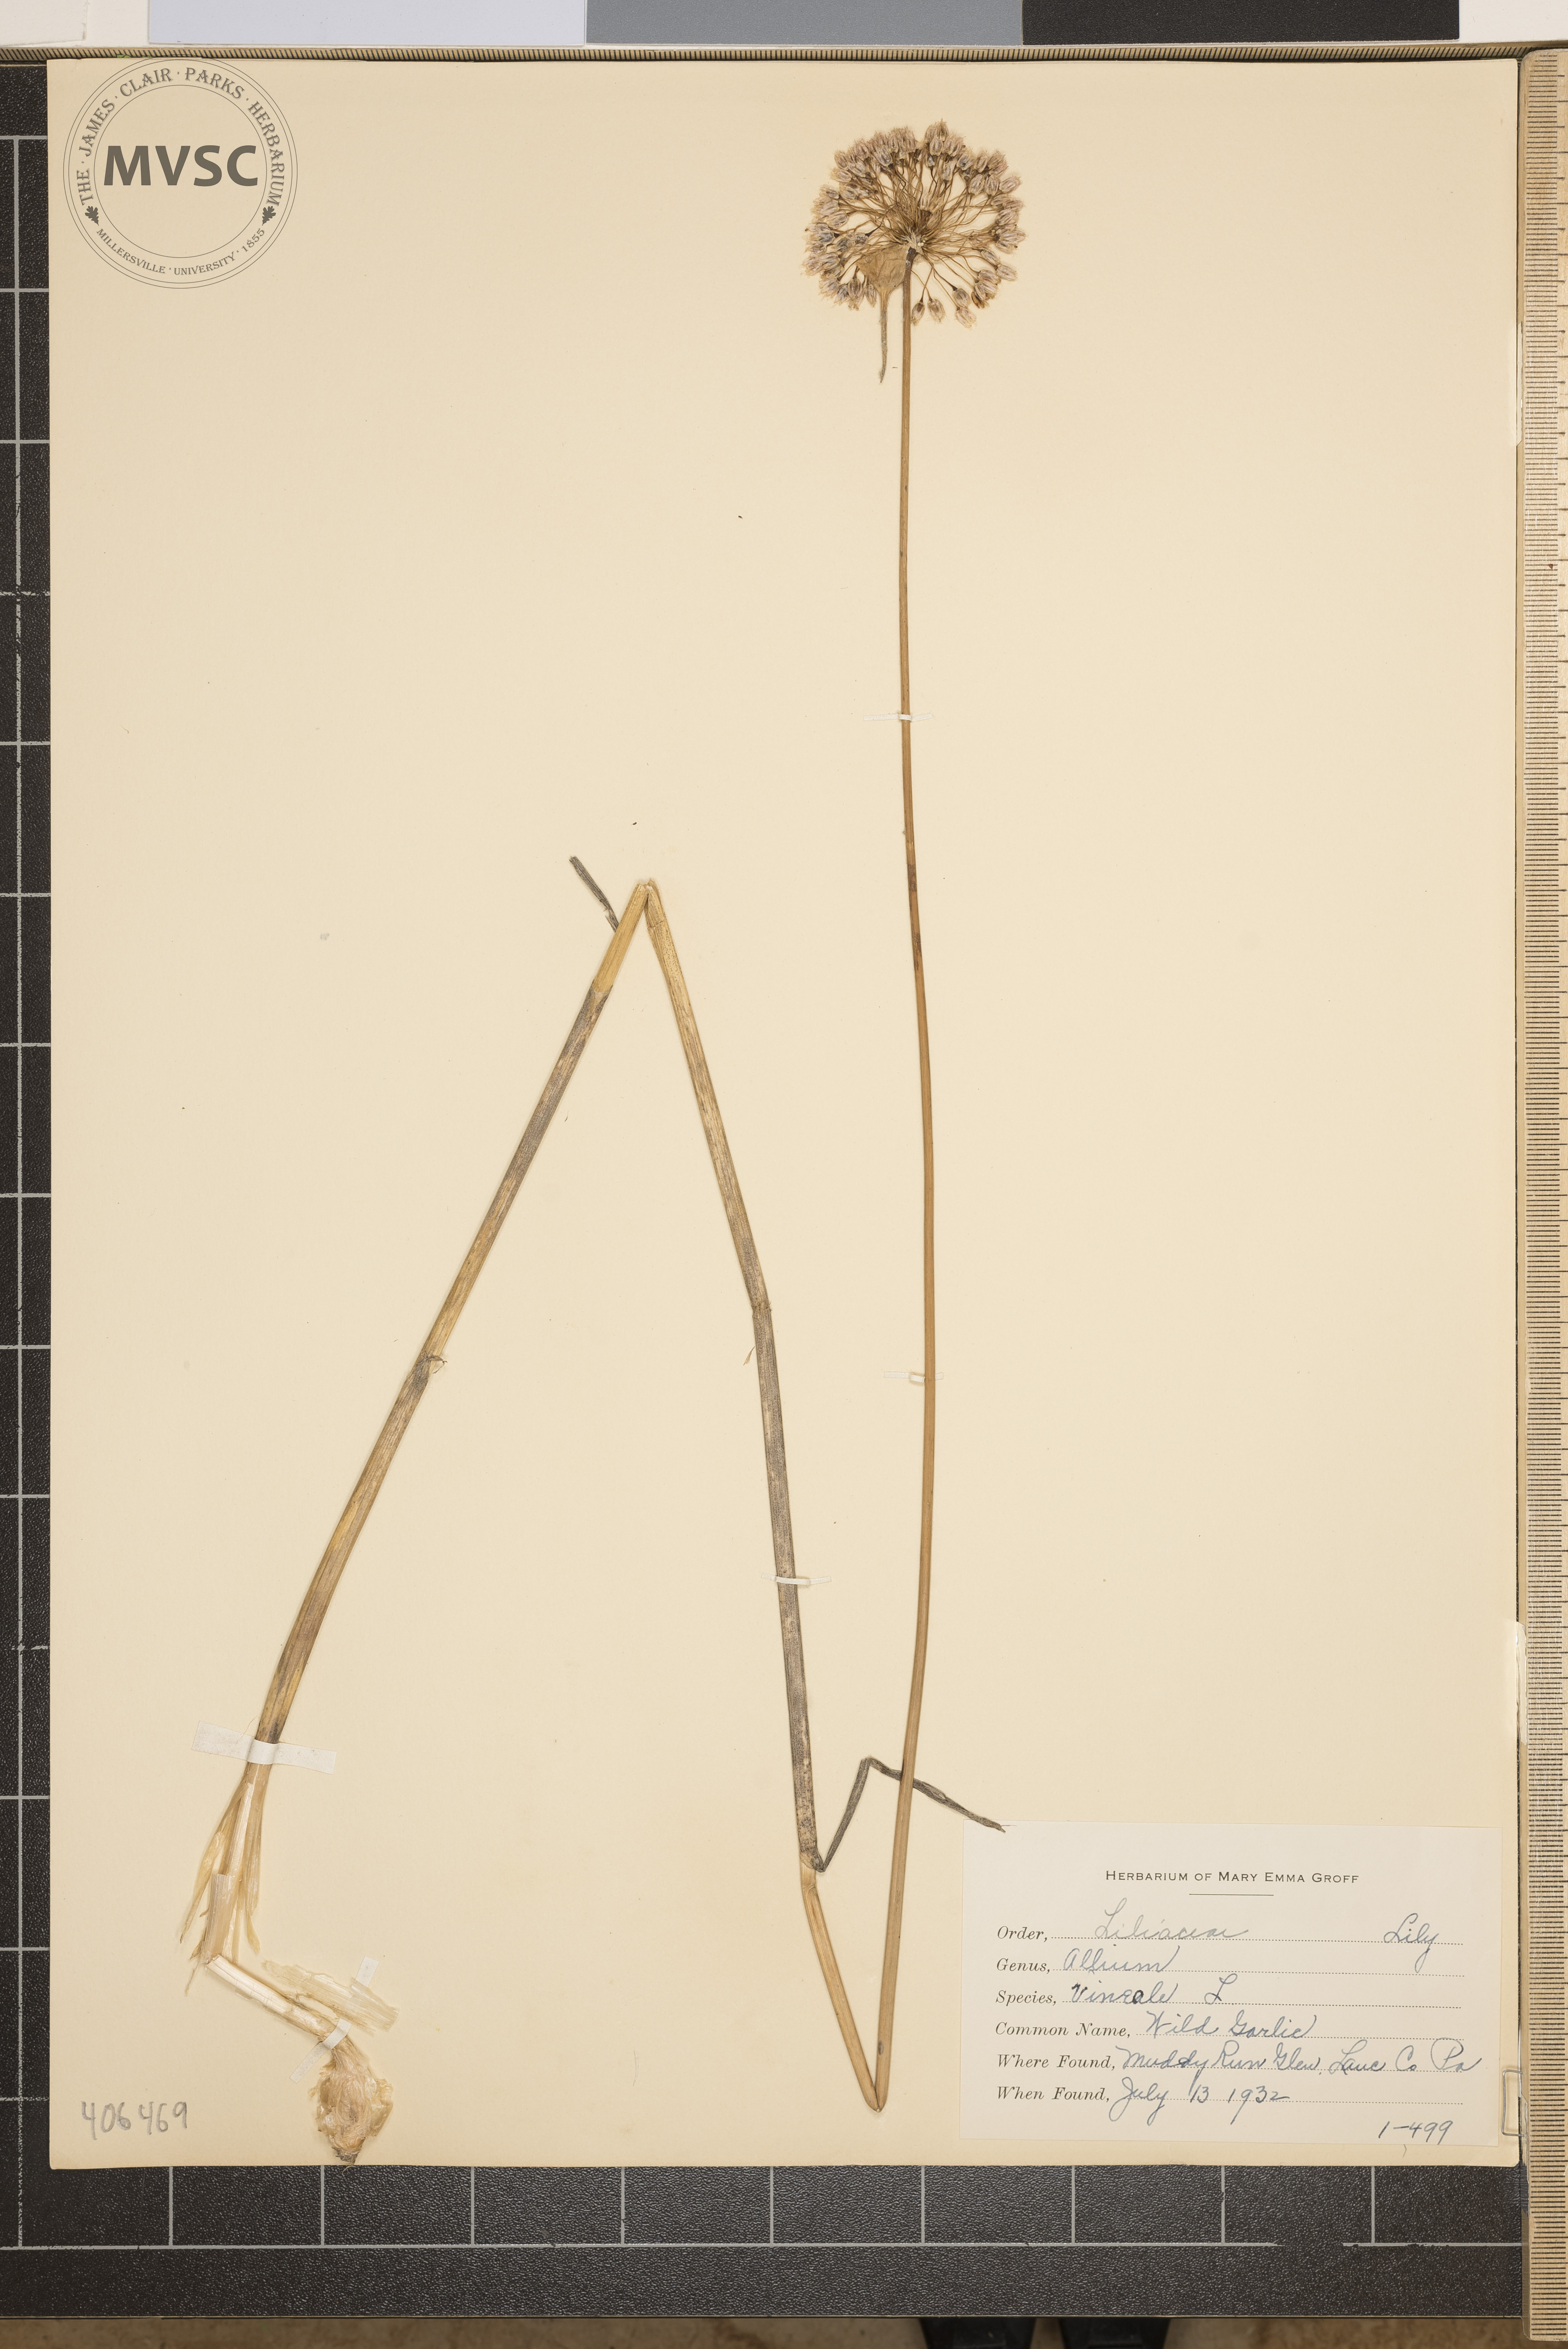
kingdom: Plantae
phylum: Tracheophyta
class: Liliopsida
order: Asparagales
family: Amaryllidaceae
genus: Allium
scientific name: Allium vineale
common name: Wild Garlic
